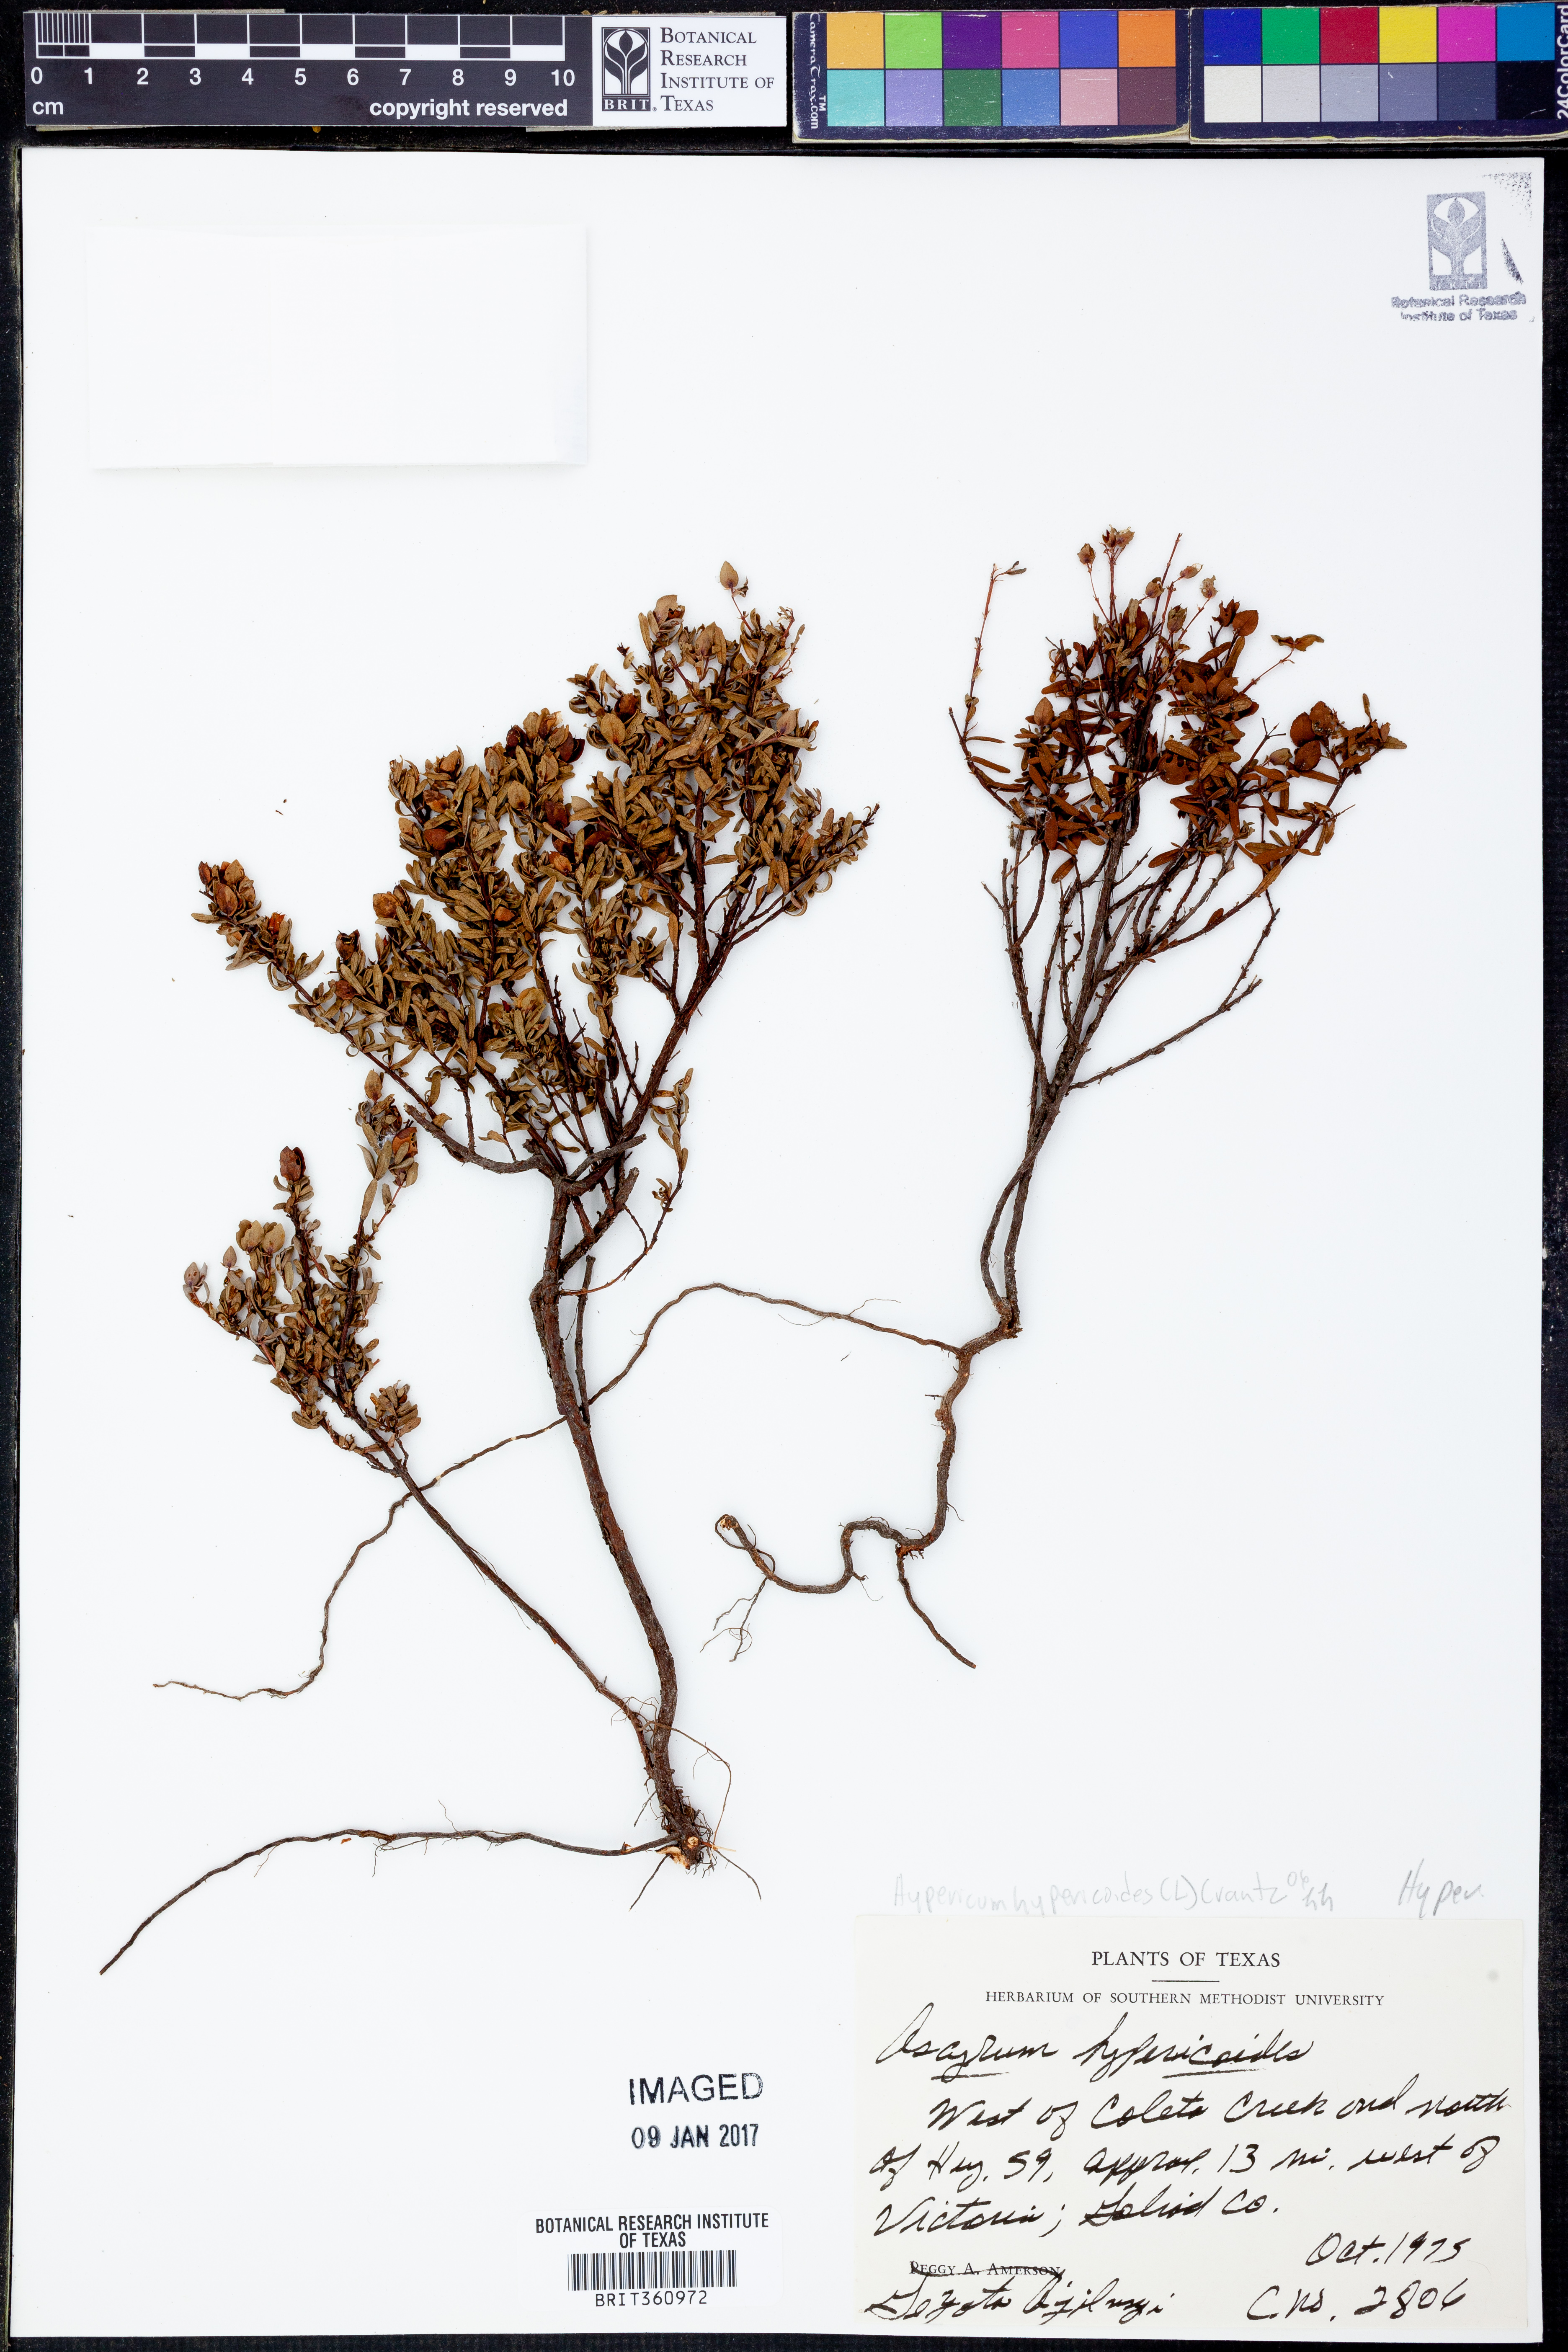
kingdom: Plantae
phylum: Tracheophyta
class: Magnoliopsida
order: Malpighiales
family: Hypericaceae
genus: Hypericum
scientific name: Hypericum hypericoides
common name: St. andrew's cross
